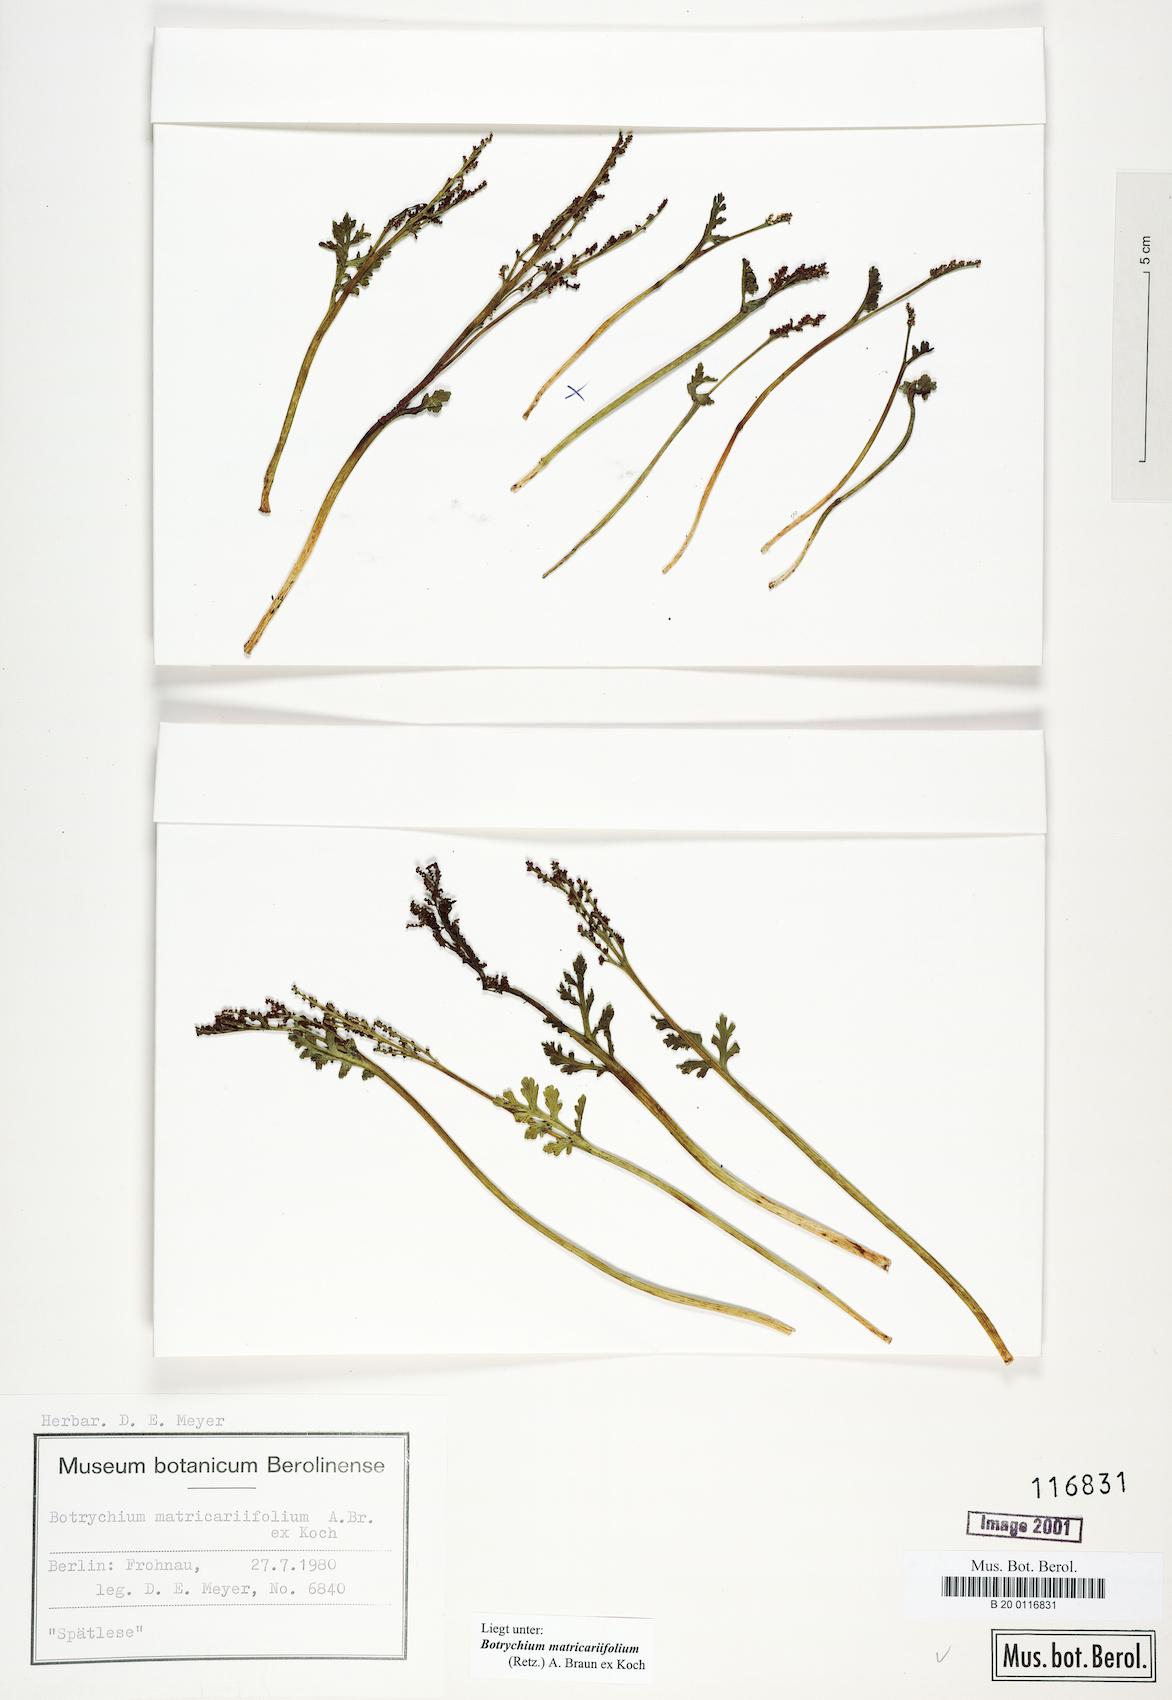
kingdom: Plantae
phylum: Tracheophyta
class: Polypodiopsida
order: Ophioglossales
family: Ophioglossaceae
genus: Botrychium
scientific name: Botrychium matricariifolium
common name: Branched moonwort
